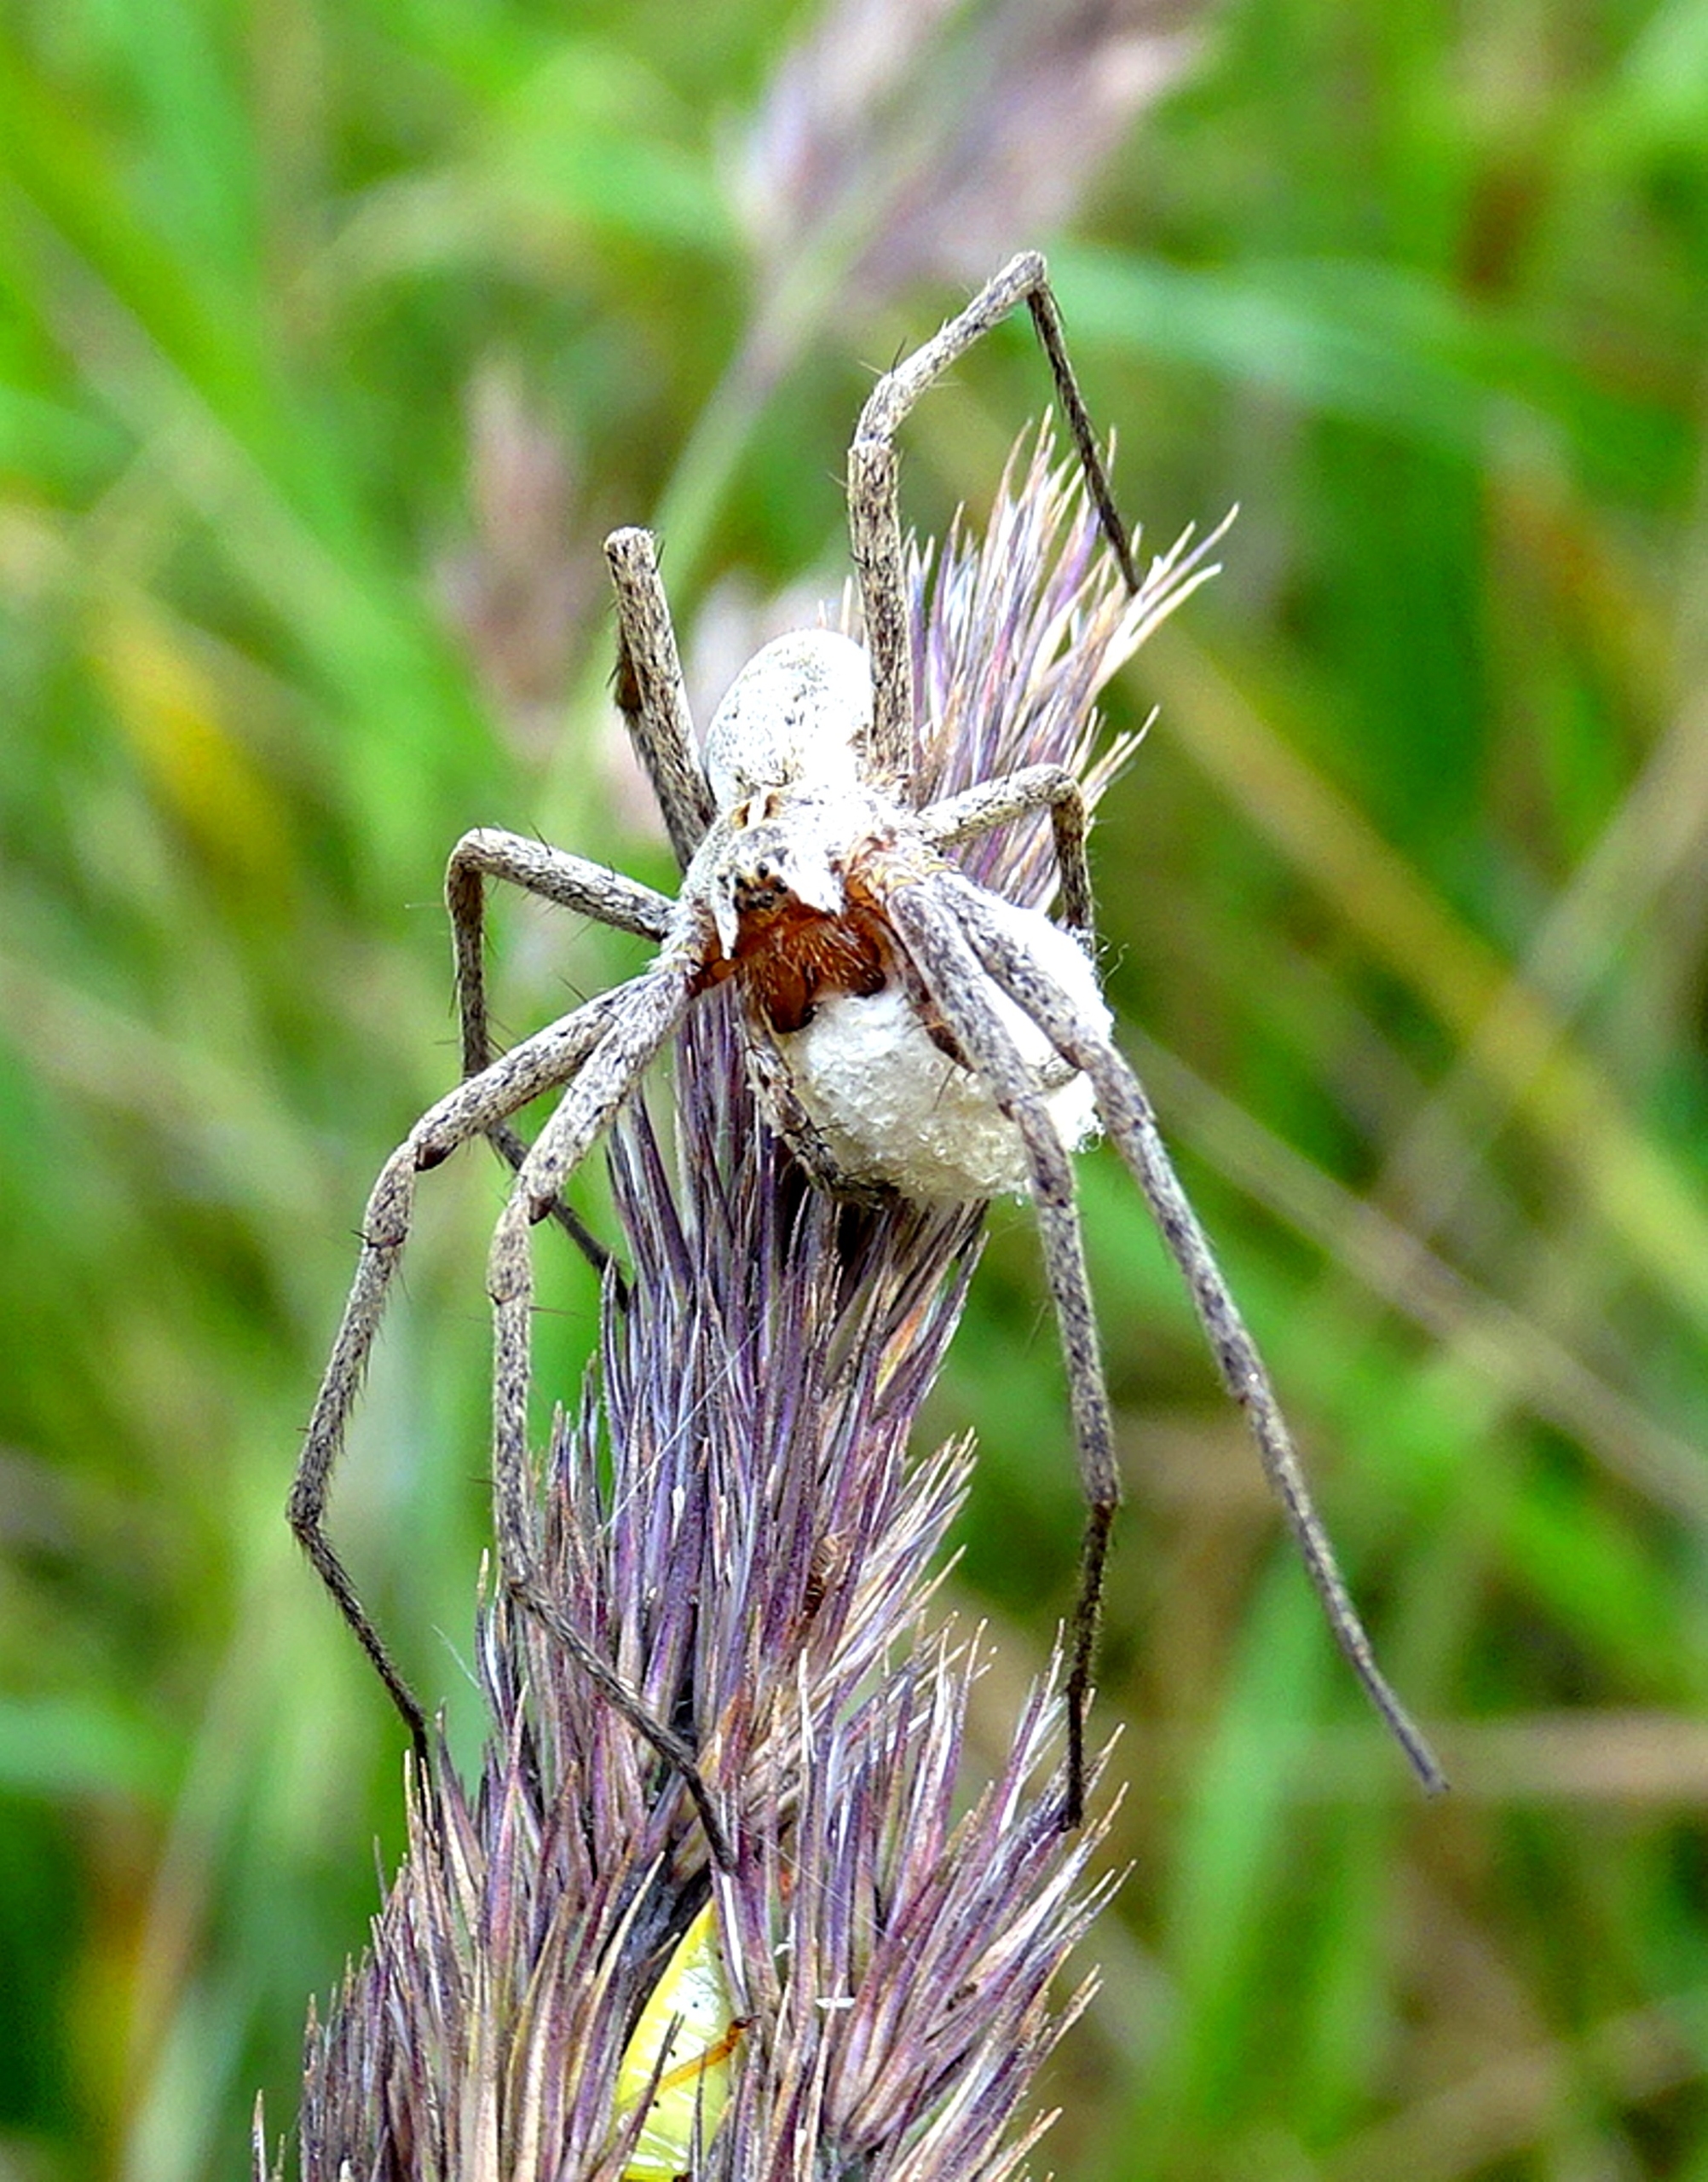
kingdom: Animalia
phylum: Arthropoda
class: Arachnida
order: Araneae
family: Pisauridae
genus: Pisaura
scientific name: Pisaura mirabilis
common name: Almindelig rovedderkop
